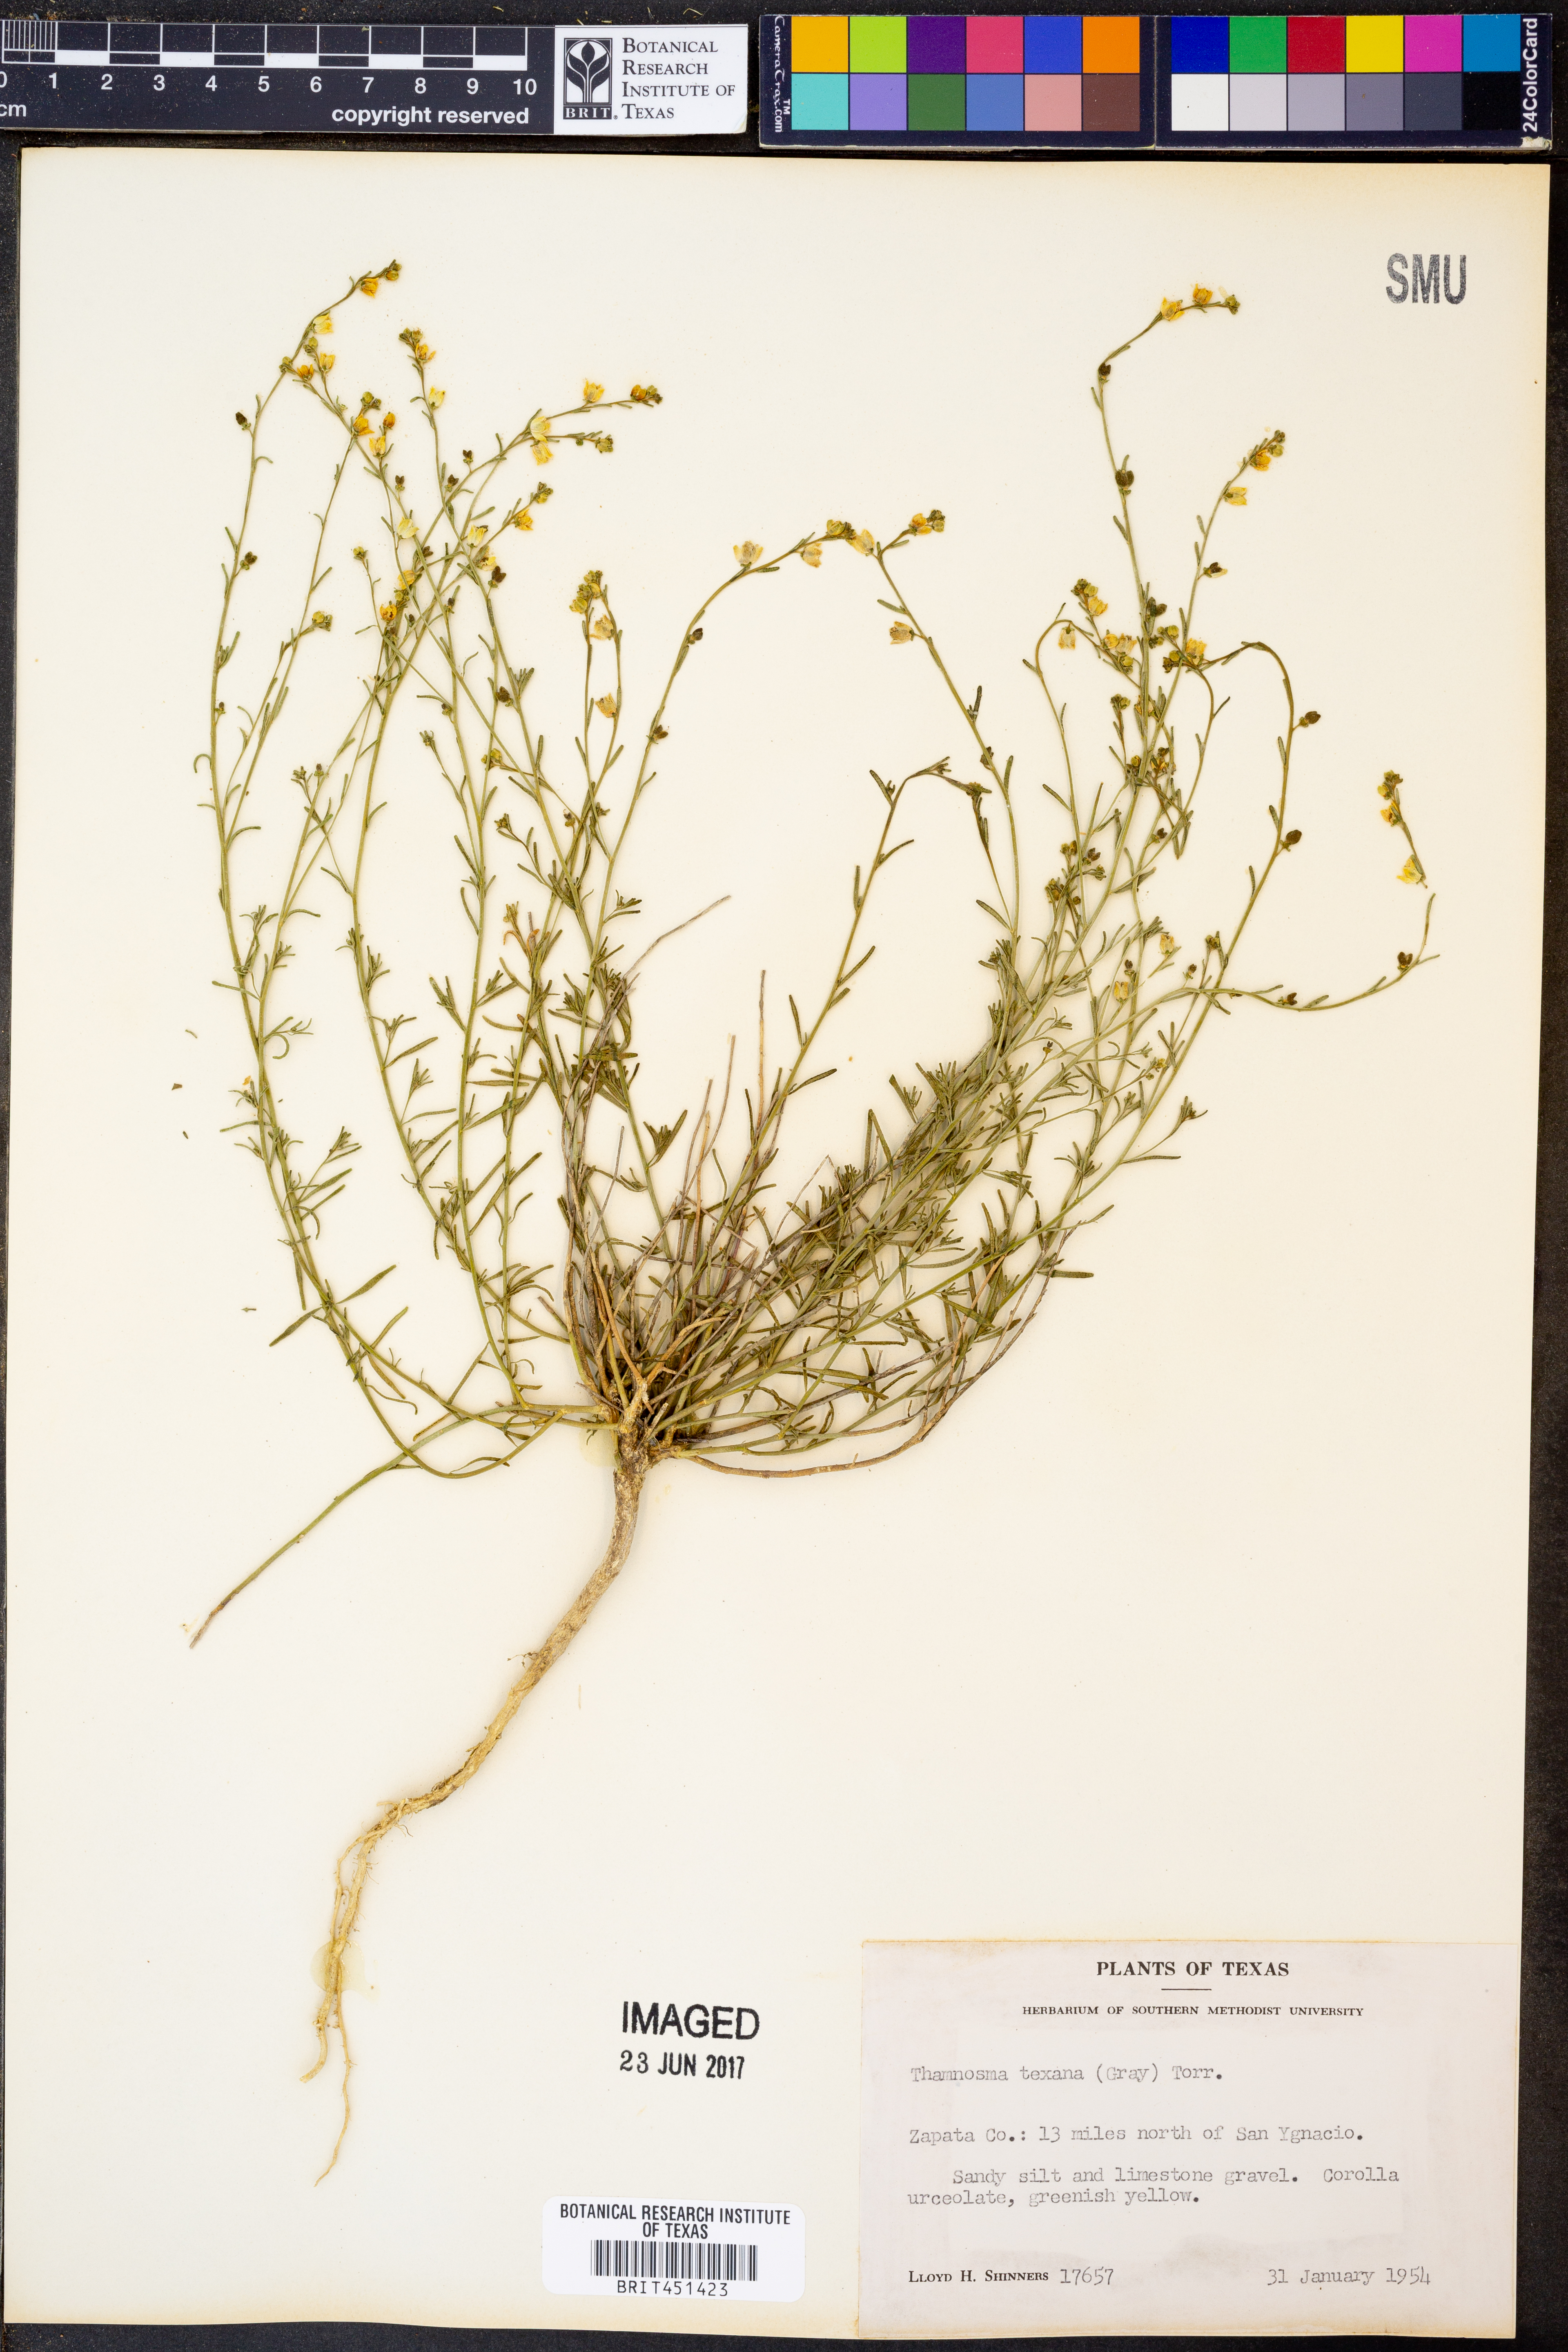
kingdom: Plantae
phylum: Tracheophyta
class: Magnoliopsida
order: Sapindales
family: Rutaceae
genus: Thamnosma
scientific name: Thamnosma texana
